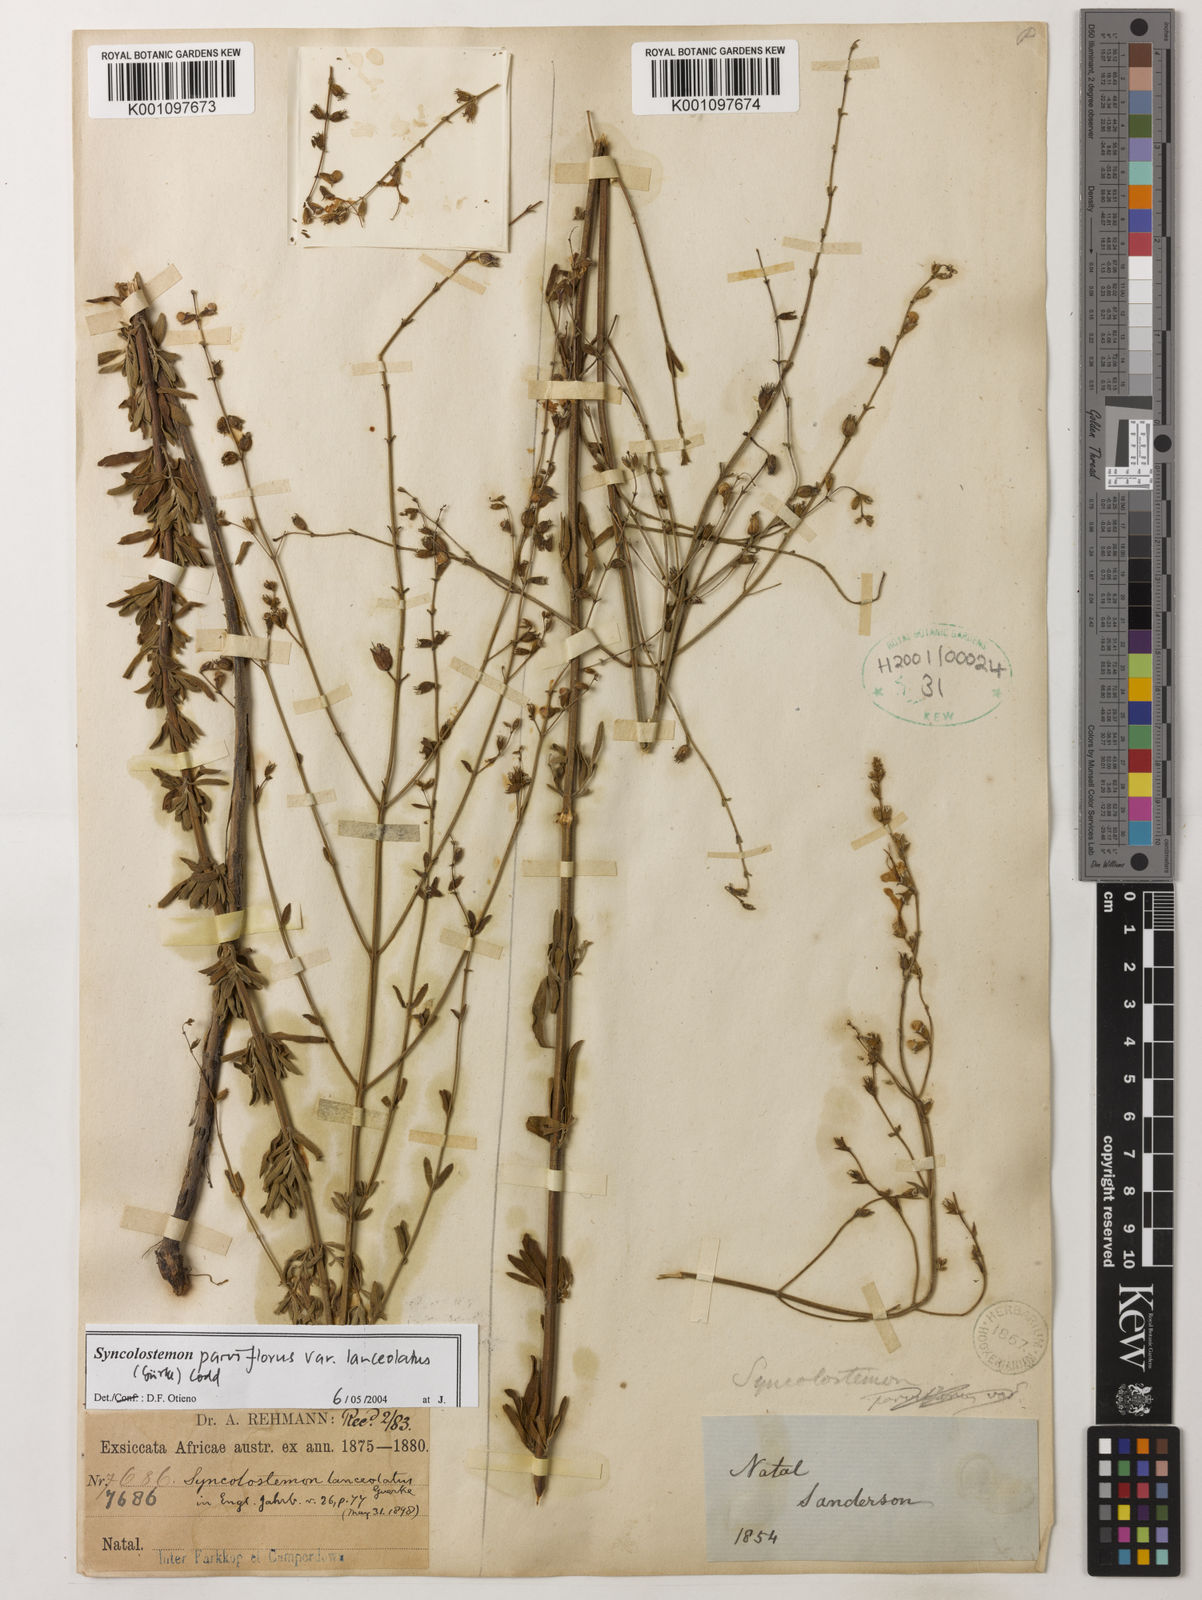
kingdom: Plantae
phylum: Tracheophyta
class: Magnoliopsida
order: Lamiales
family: Lamiaceae
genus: Syncolostemon
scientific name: Syncolostemon parviflorus
